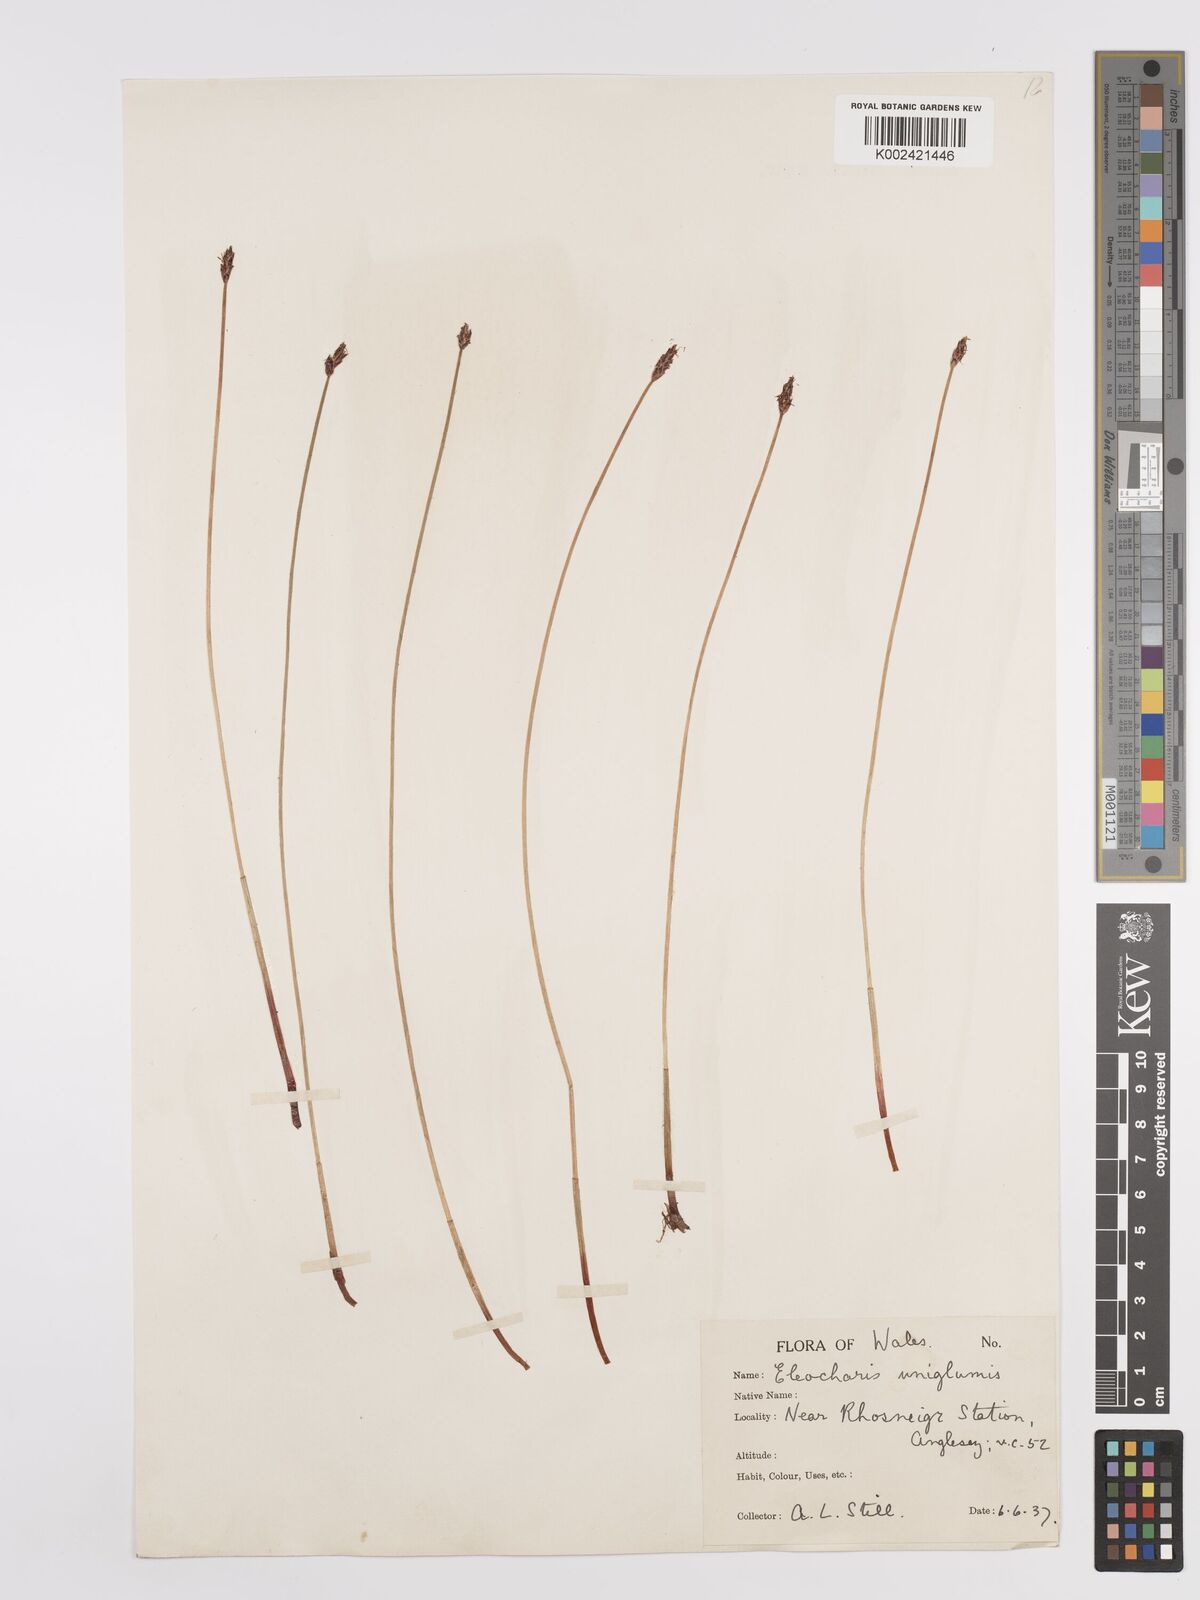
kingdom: Plantae
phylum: Tracheophyta
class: Liliopsida
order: Poales
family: Cyperaceae
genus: Eleocharis
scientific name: Eleocharis uniglumis
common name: Slender spike-rush
